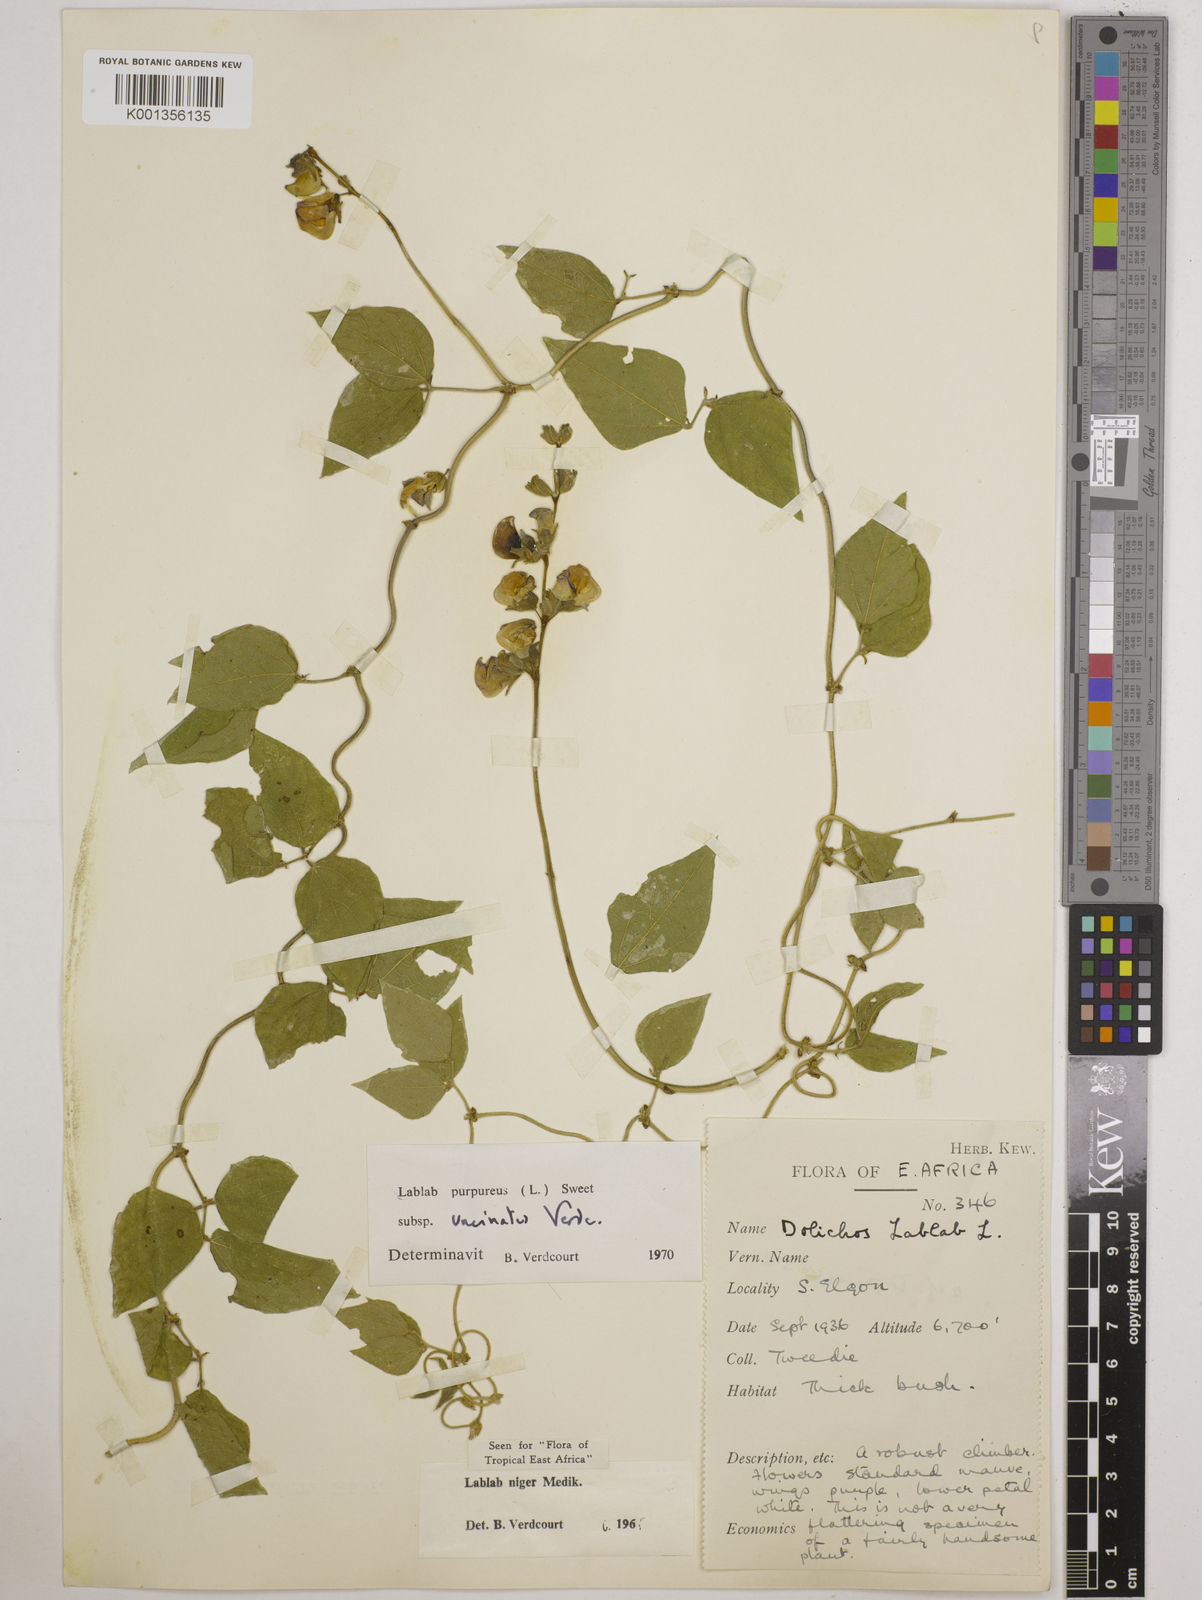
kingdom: Plantae
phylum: Tracheophyta
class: Magnoliopsida
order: Fabales
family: Fabaceae
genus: Lablab
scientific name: Lablab purpureus
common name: Lablab-bean
